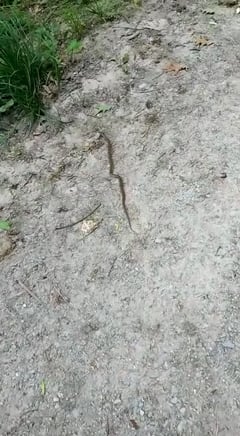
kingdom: Animalia
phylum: Chordata
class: Squamata
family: Viperidae
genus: Vipera
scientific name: Vipera aspis
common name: Asp viper
